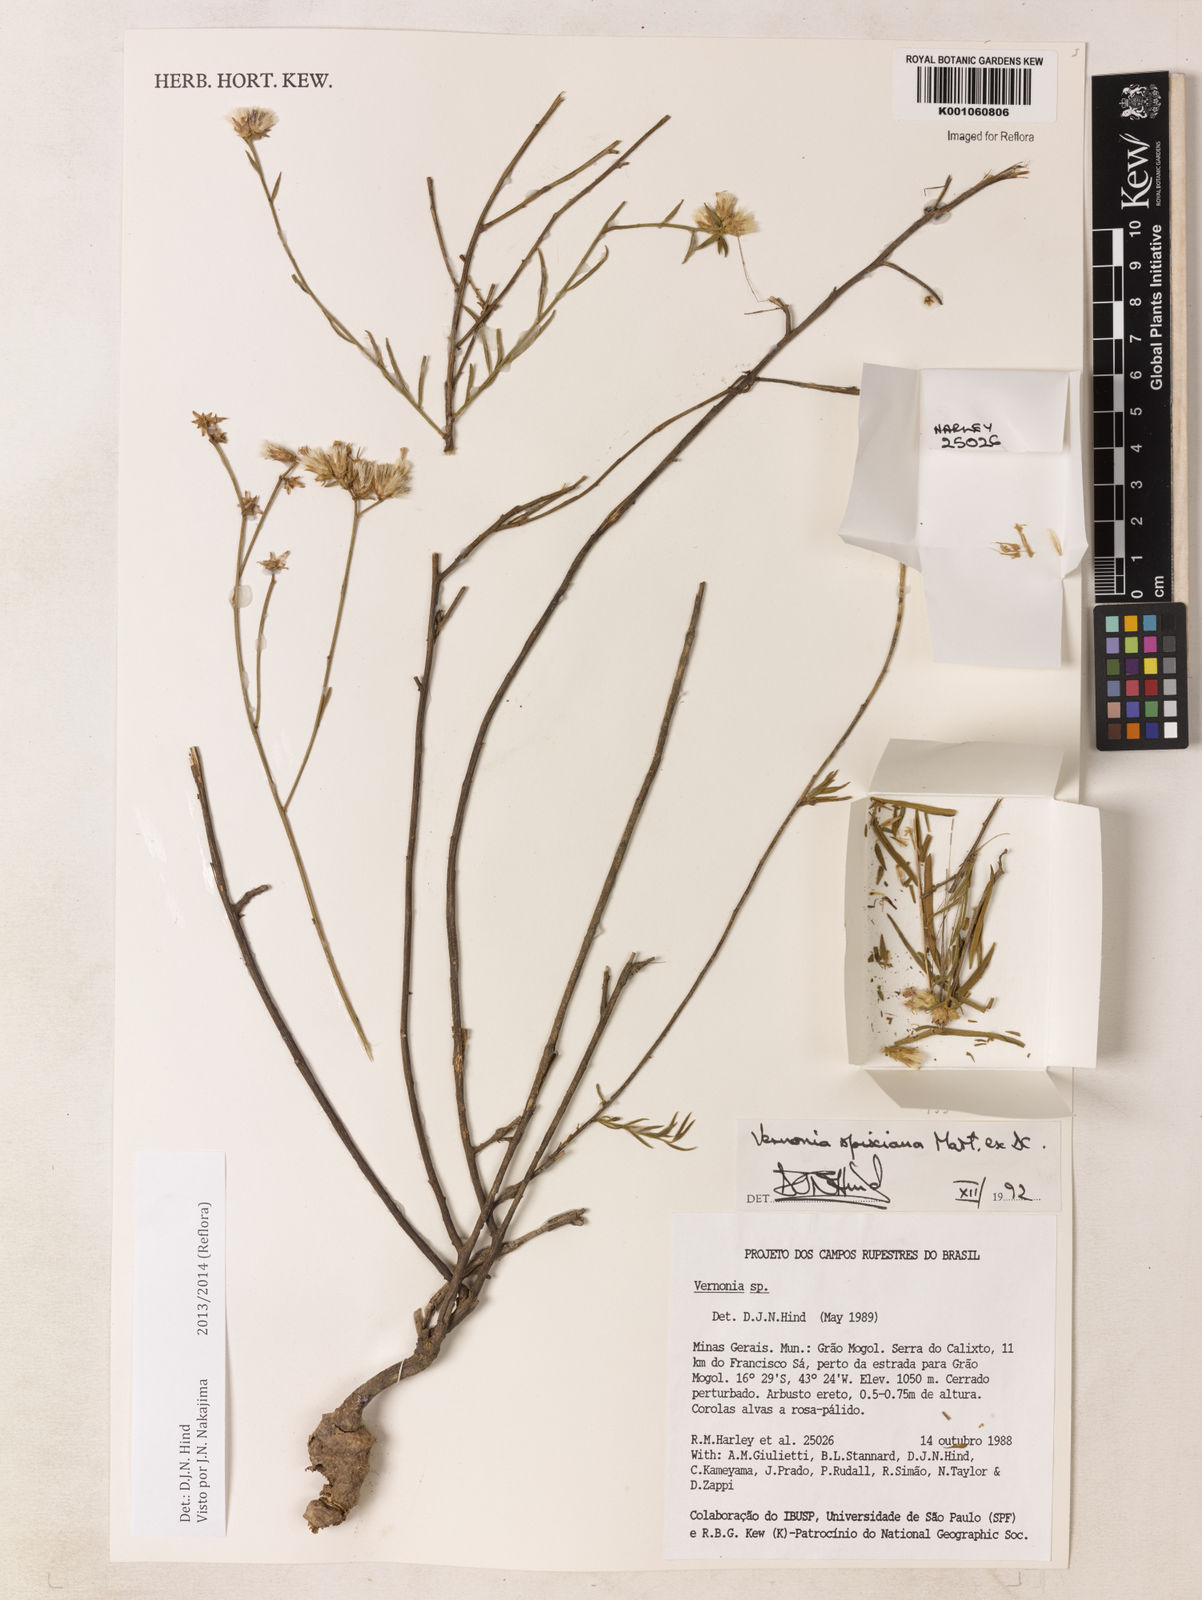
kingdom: Plantae
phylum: Tracheophyta
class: Magnoliopsida
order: Asterales
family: Asteraceae
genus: Vernonia
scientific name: Vernonia
